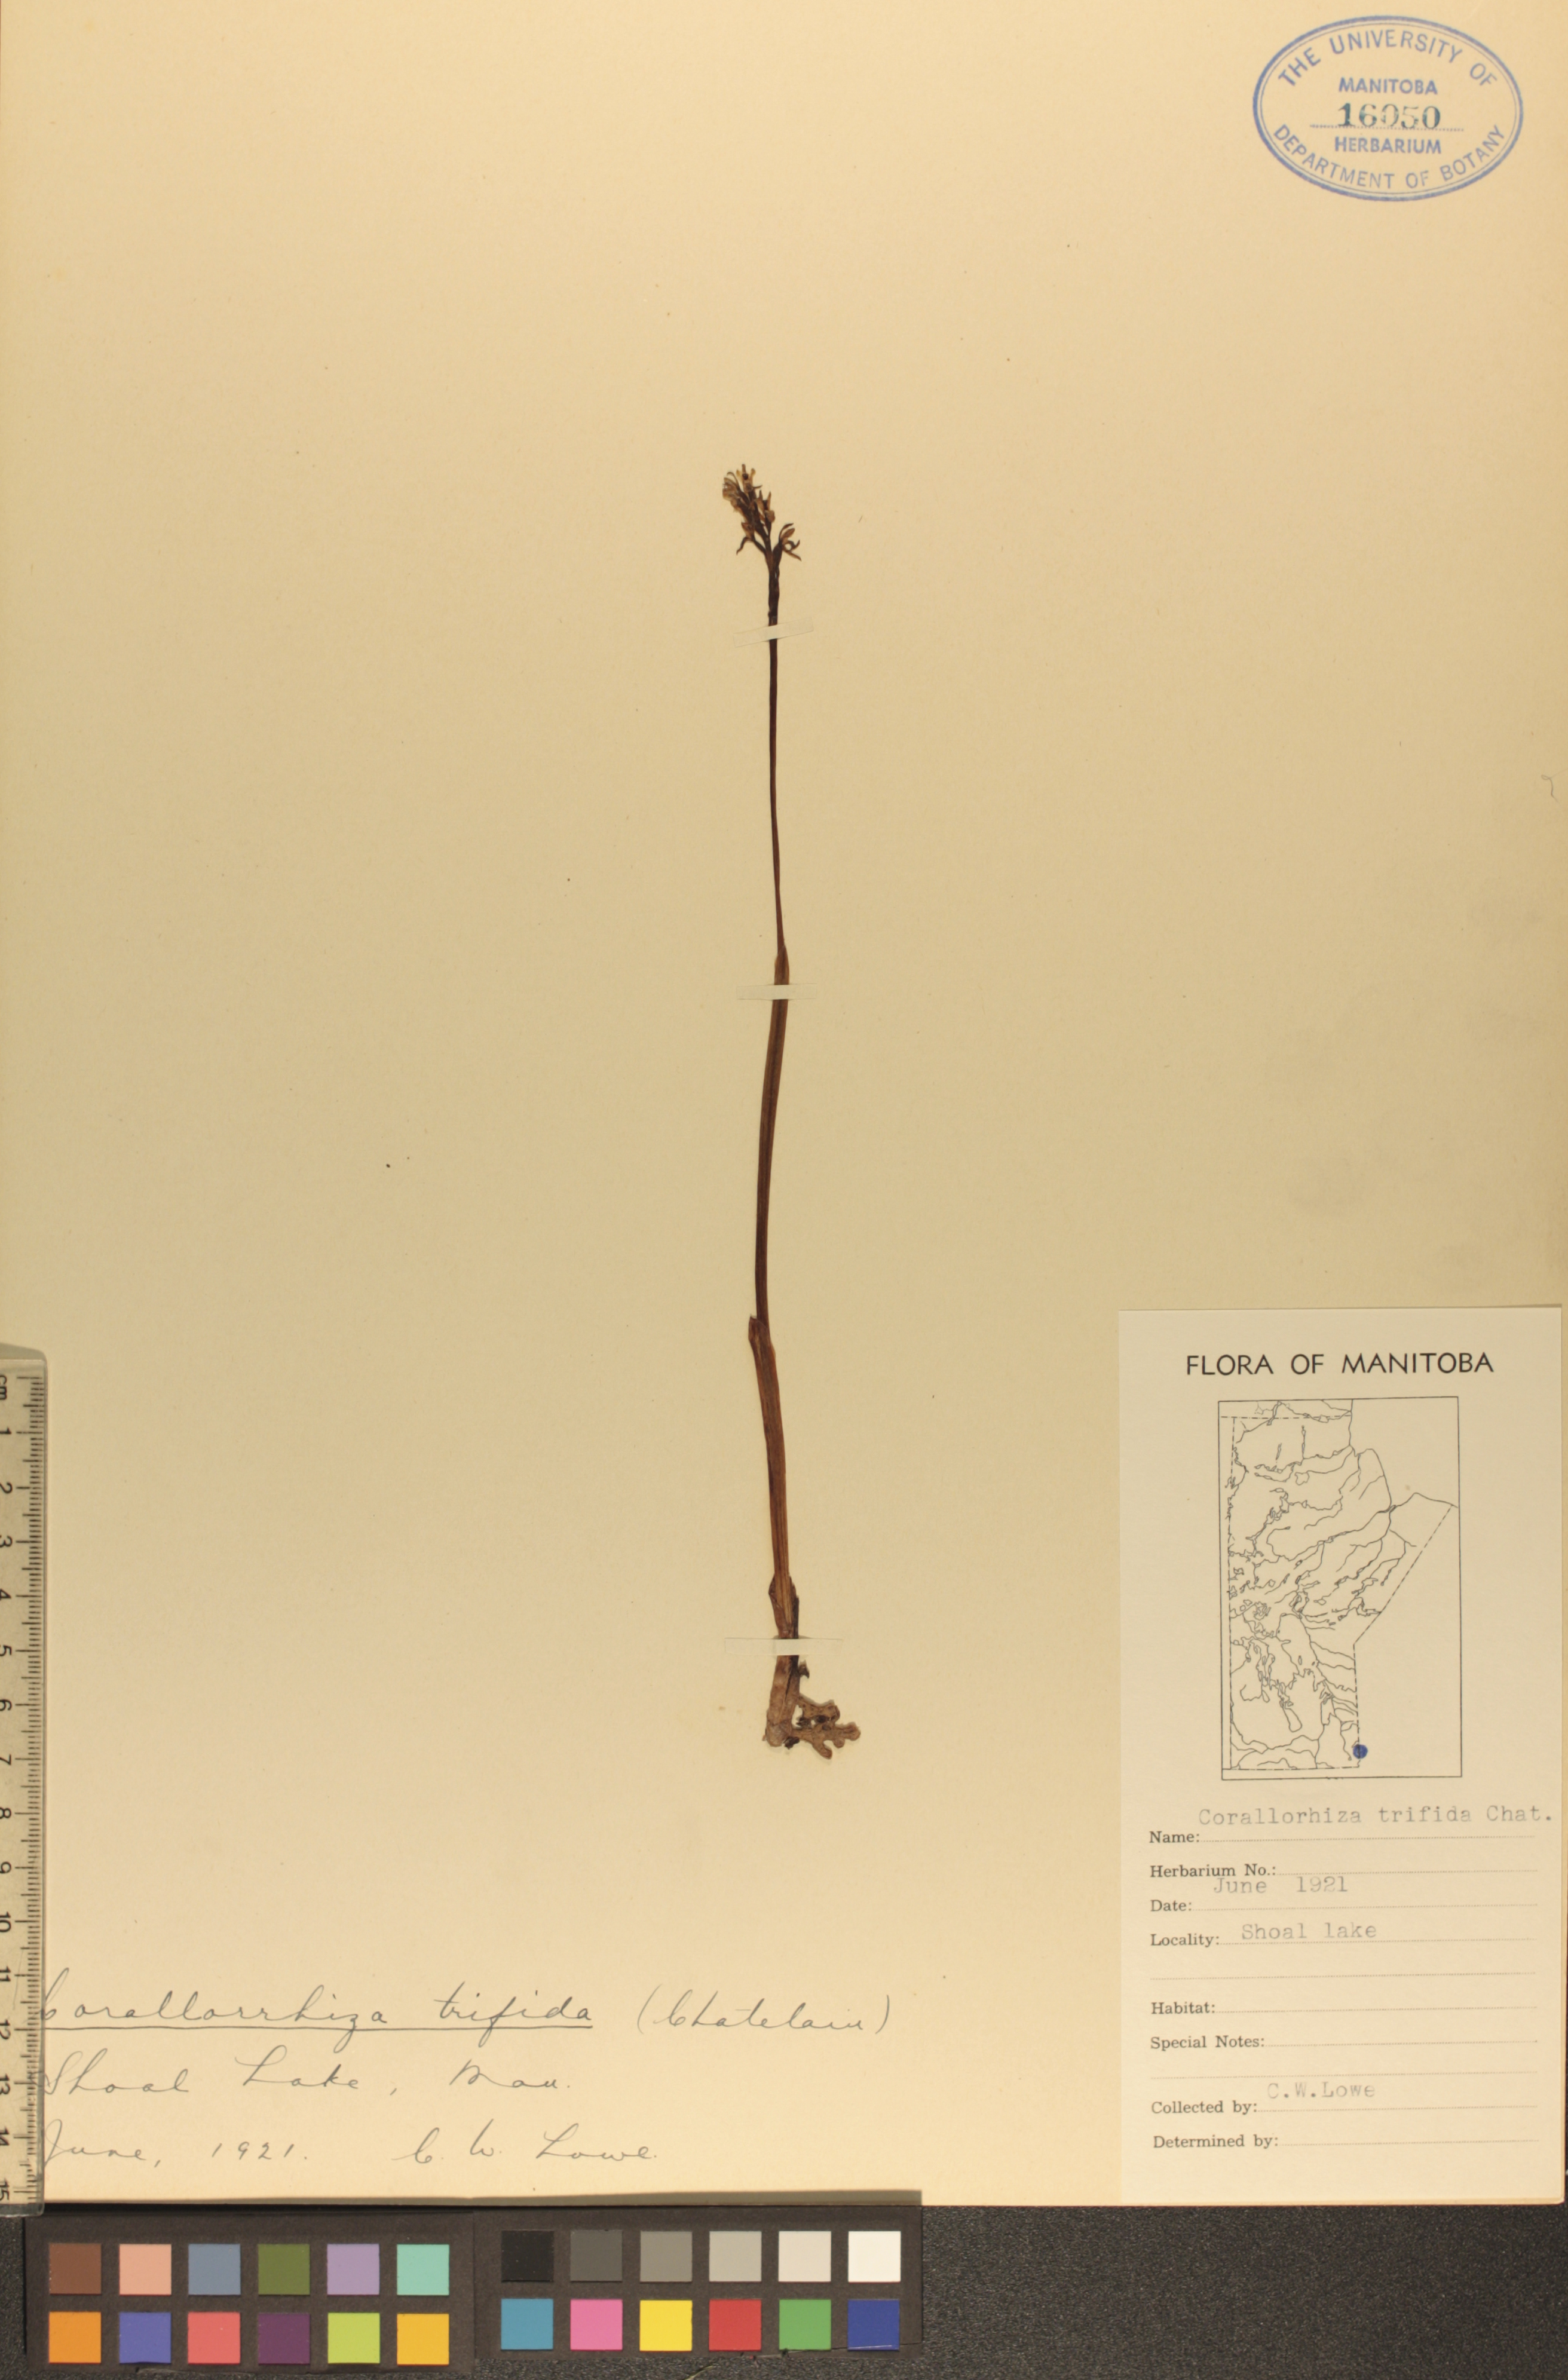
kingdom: Plantae
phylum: Tracheophyta
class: Liliopsida
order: Asparagales
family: Orchidaceae
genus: Corallorhiza
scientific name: Corallorhiza trifida
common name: Yellow coralroot
